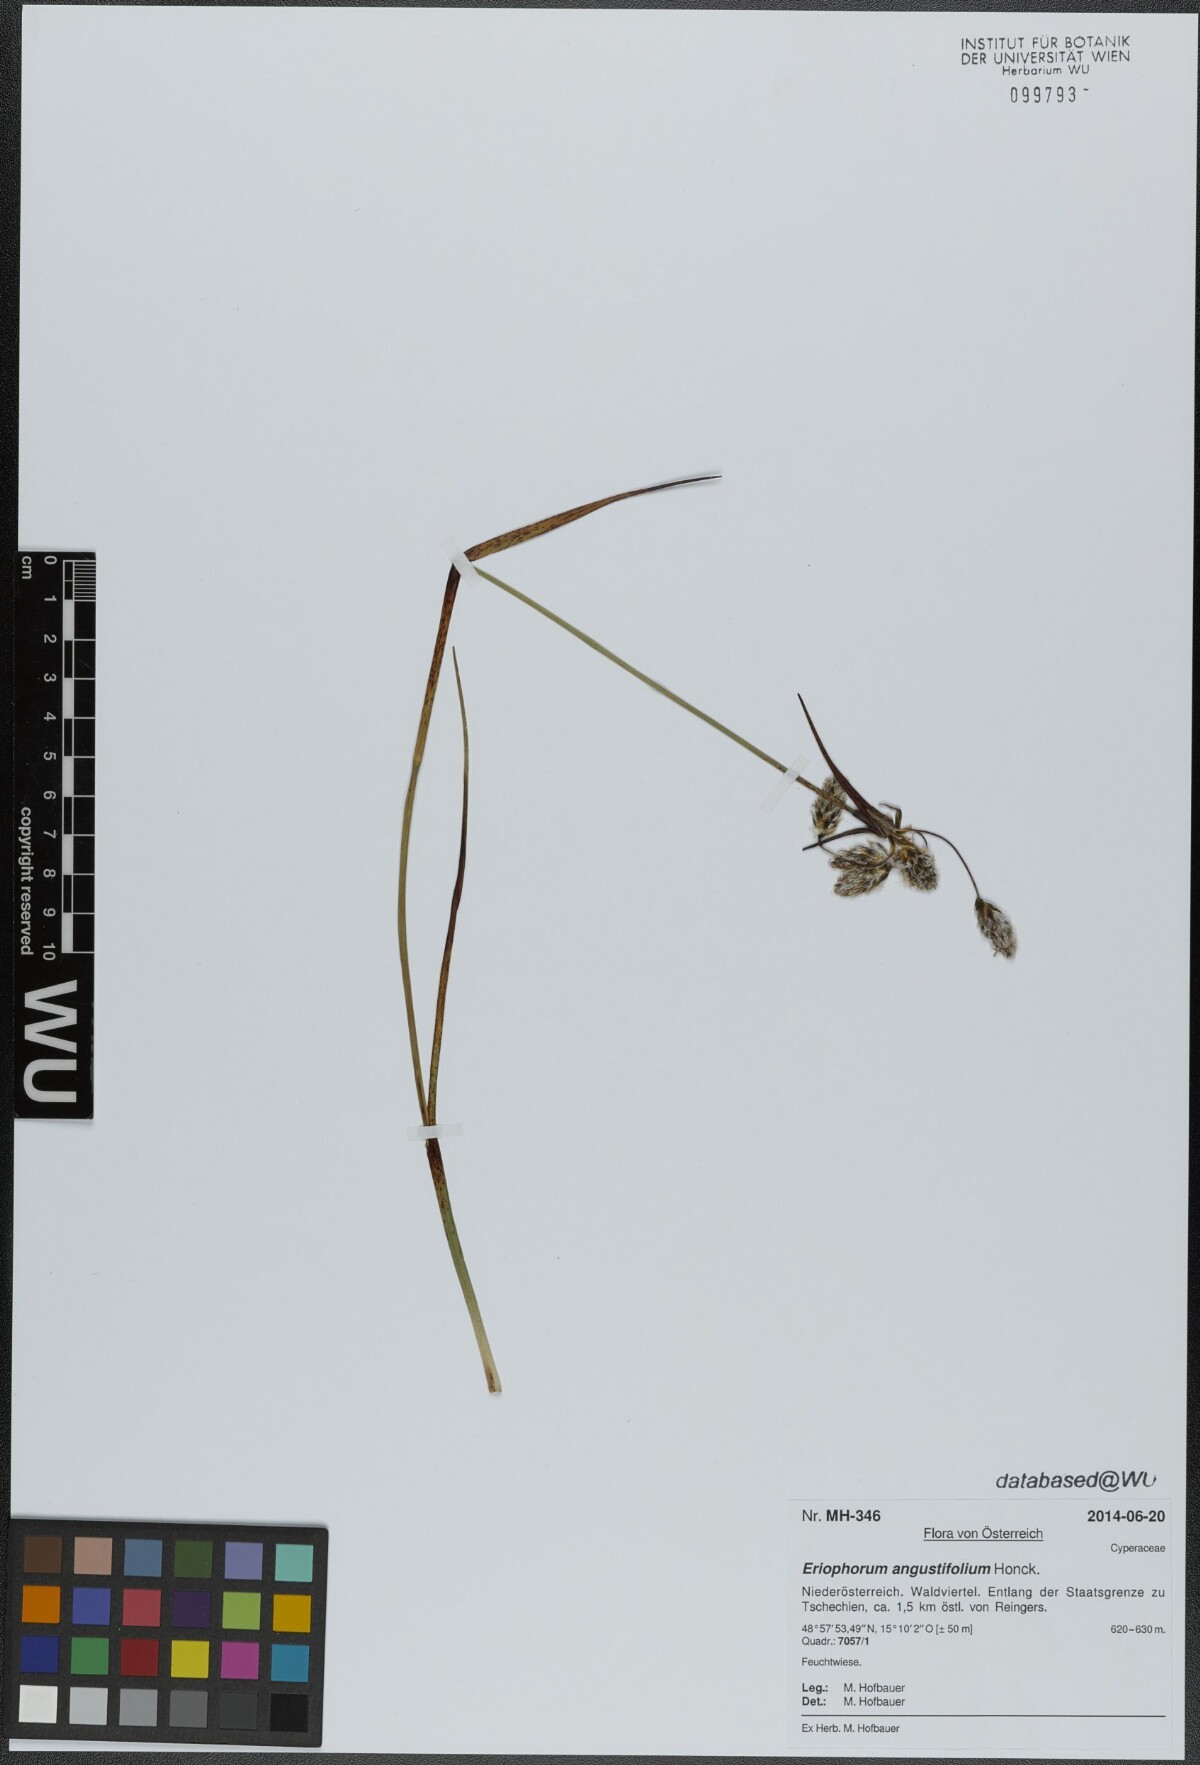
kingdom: Plantae
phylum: Tracheophyta
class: Liliopsida
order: Poales
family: Cyperaceae
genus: Eriophorum
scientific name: Eriophorum angustifolium
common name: Common cottongrass
